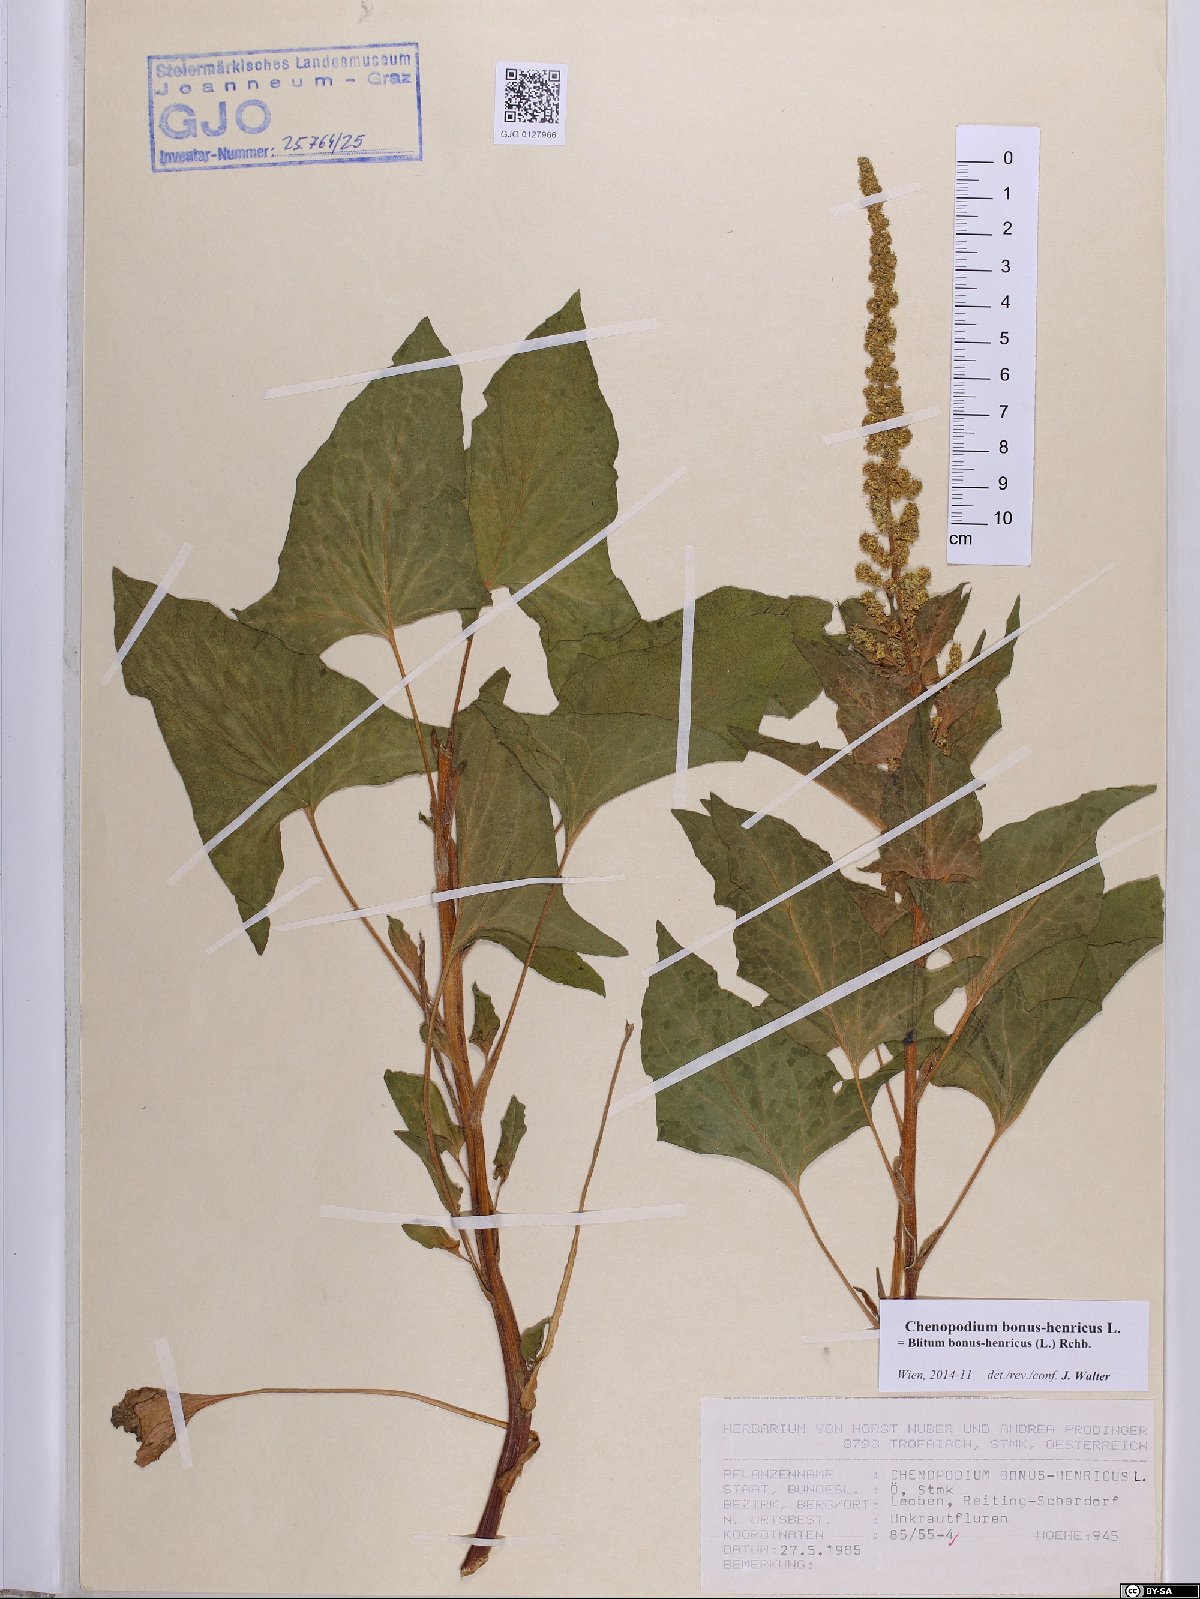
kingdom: Plantae
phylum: Tracheophyta
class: Magnoliopsida
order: Caryophyllales
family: Amaranthaceae
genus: Blitum
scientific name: Blitum bonus-henricus
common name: Good king henry
